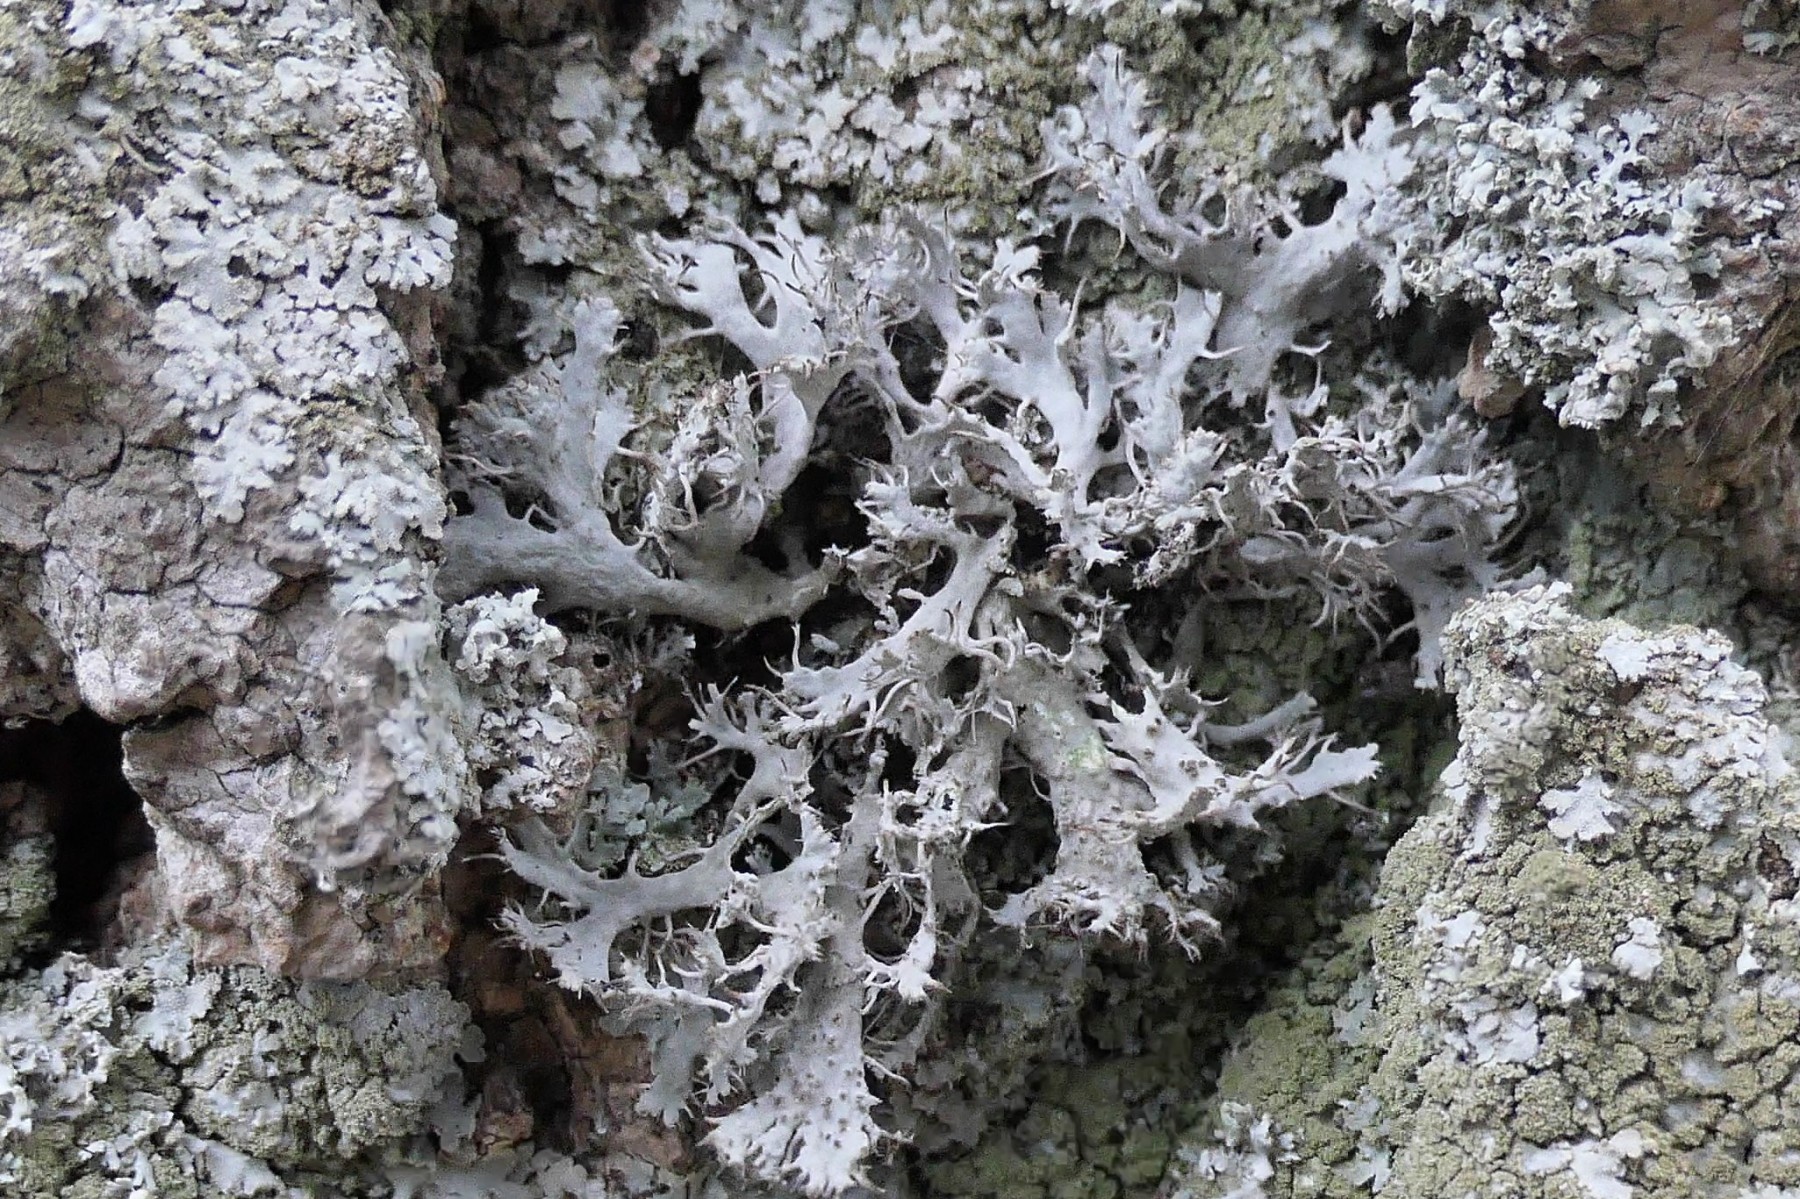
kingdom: Fungi
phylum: Ascomycota
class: Lecanoromycetes
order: Caliciales
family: Physciaceae
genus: Anaptychia
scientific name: Anaptychia ciliaris
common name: allé-frynselav
